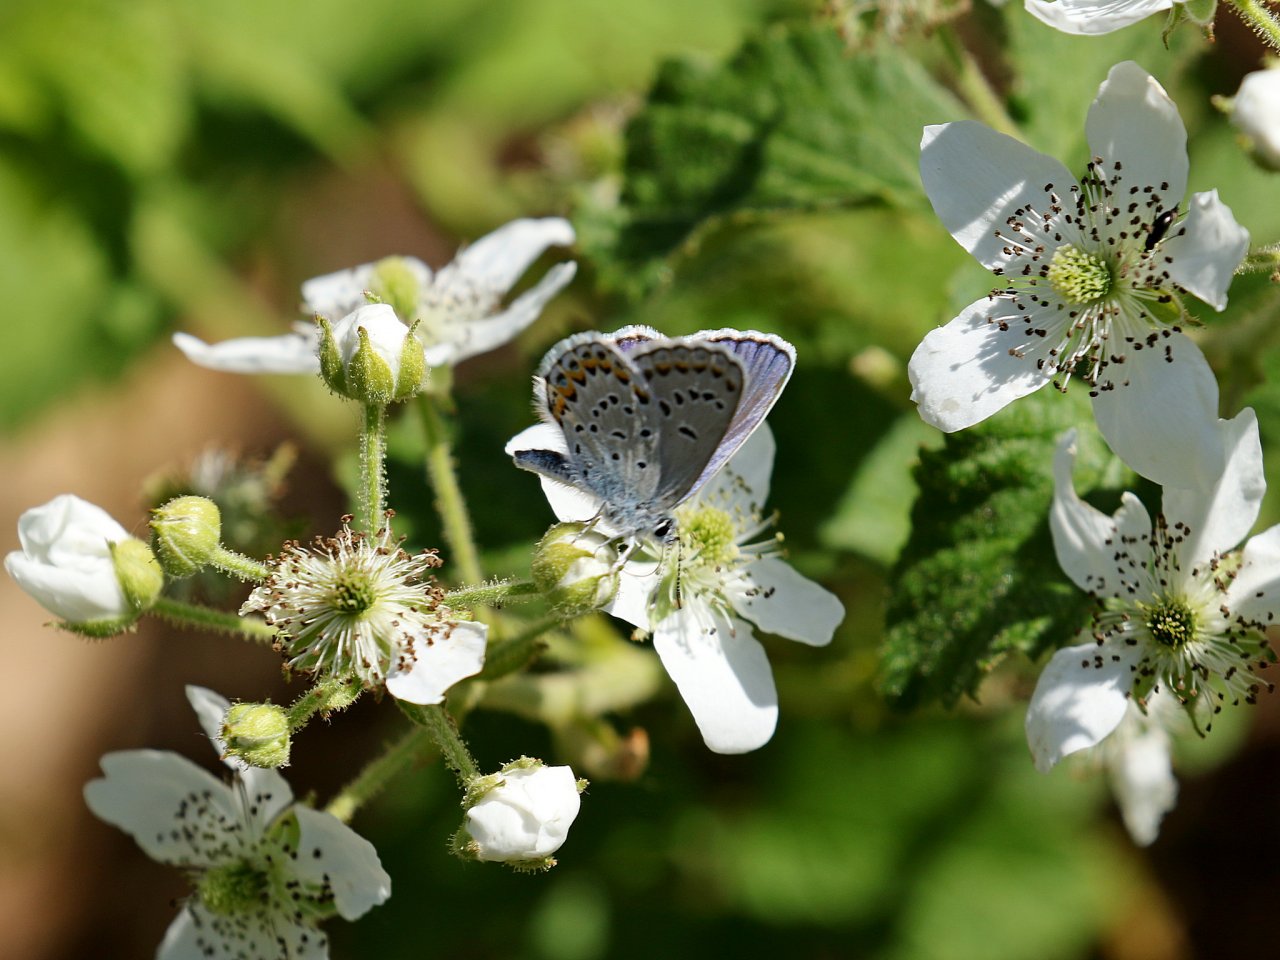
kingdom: Animalia
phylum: Arthropoda
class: Insecta
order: Lepidoptera
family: Lycaenidae
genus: Plebejus
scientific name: Plebejus samuelis
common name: Karner Blue
